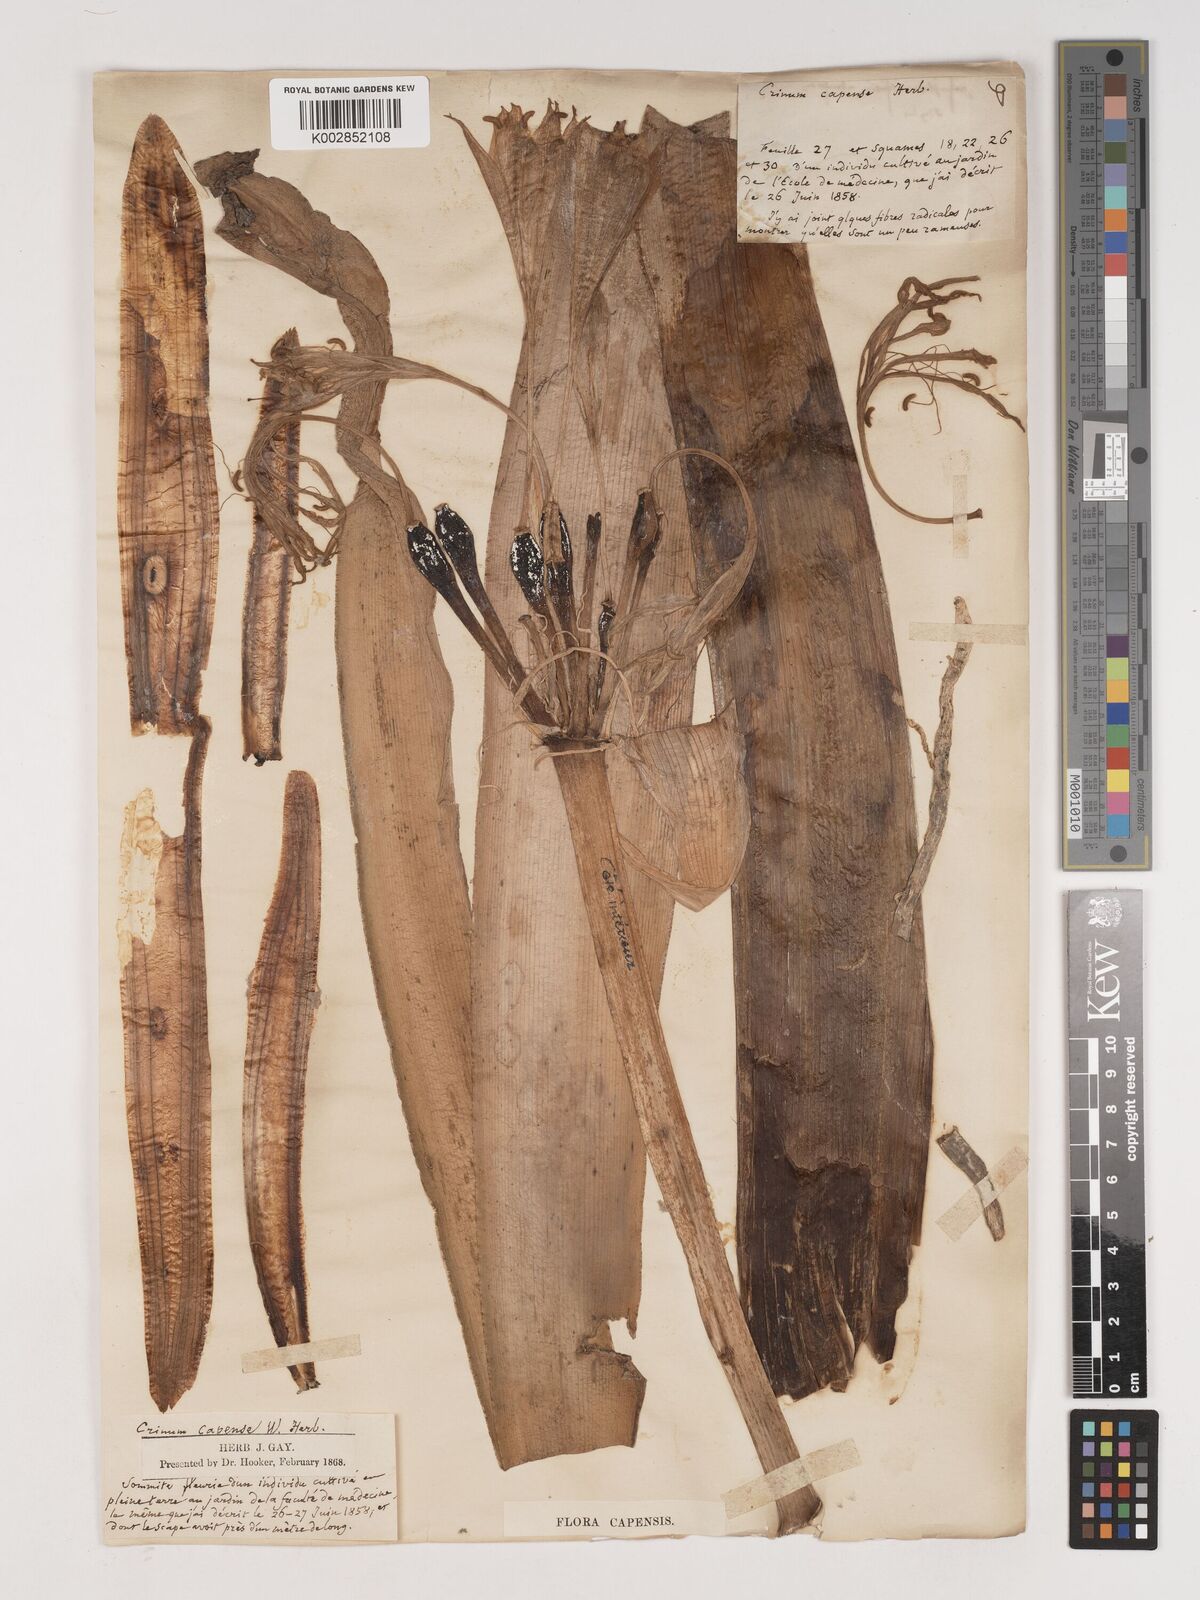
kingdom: Plantae
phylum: Tracheophyta
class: Liliopsida
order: Asparagales
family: Amaryllidaceae
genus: Crinum
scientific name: Crinum bulbispermum
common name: Hardy swamplily
